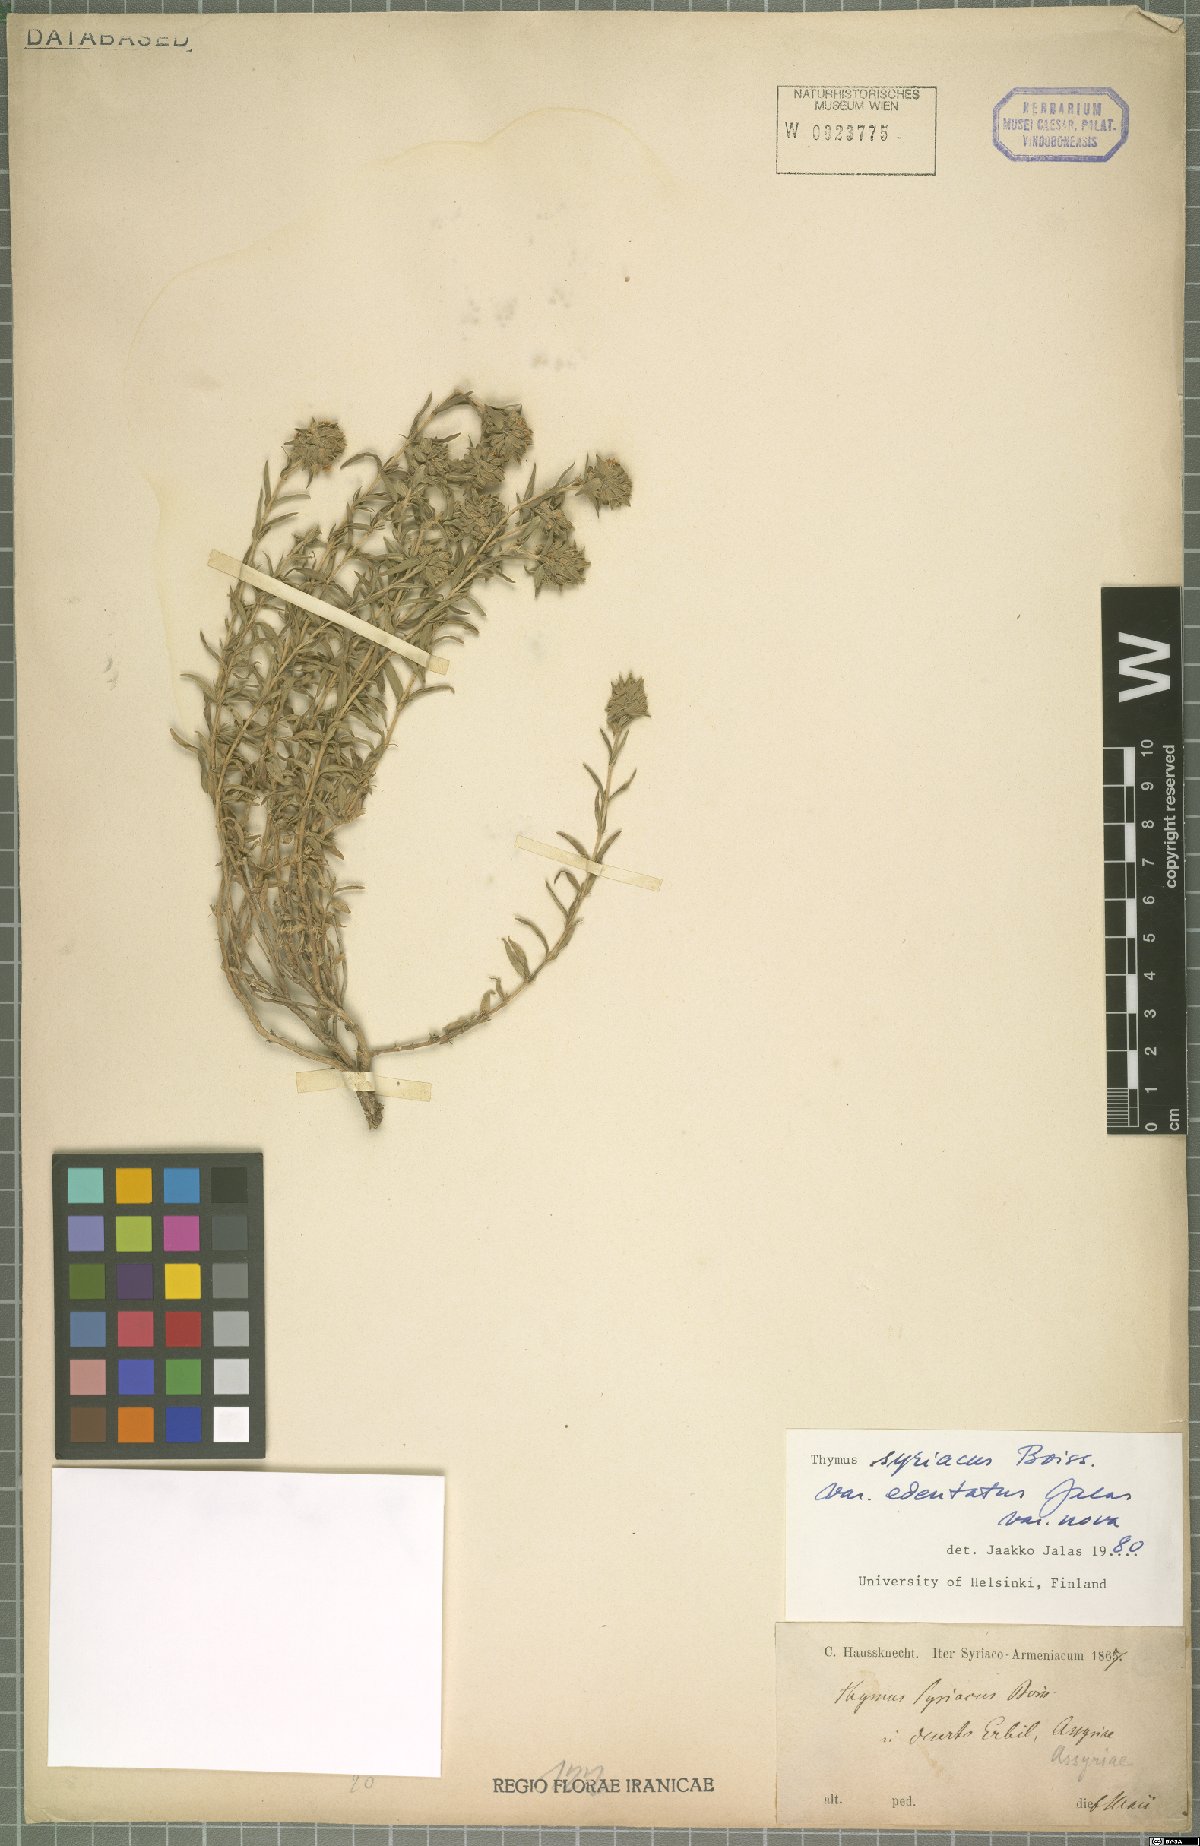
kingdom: Plantae
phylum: Tracheophyta
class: Magnoliopsida
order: Lamiales
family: Lamiaceae
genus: Thymus
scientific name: Thymus syriacus
